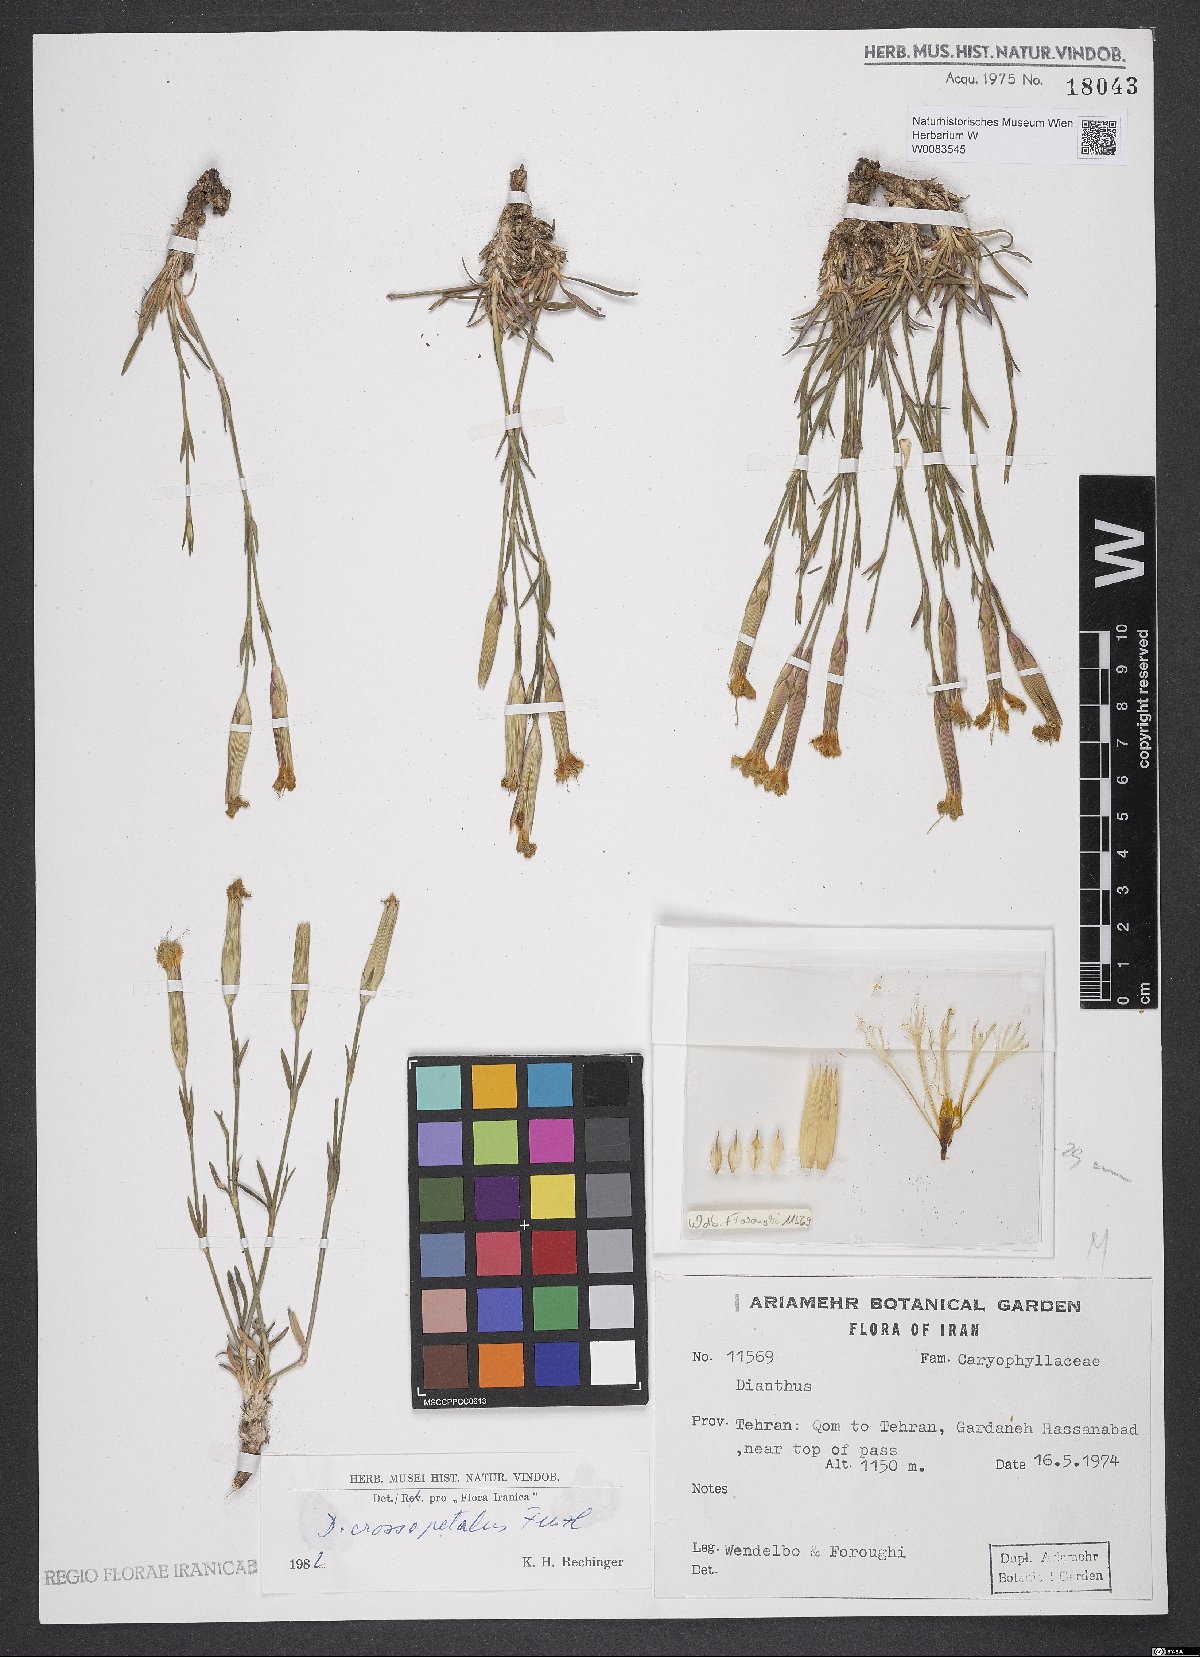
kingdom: Plantae
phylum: Tracheophyta
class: Magnoliopsida
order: Caryophyllales
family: Caryophyllaceae
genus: Dianthus
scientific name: Dianthus crossopetalus
